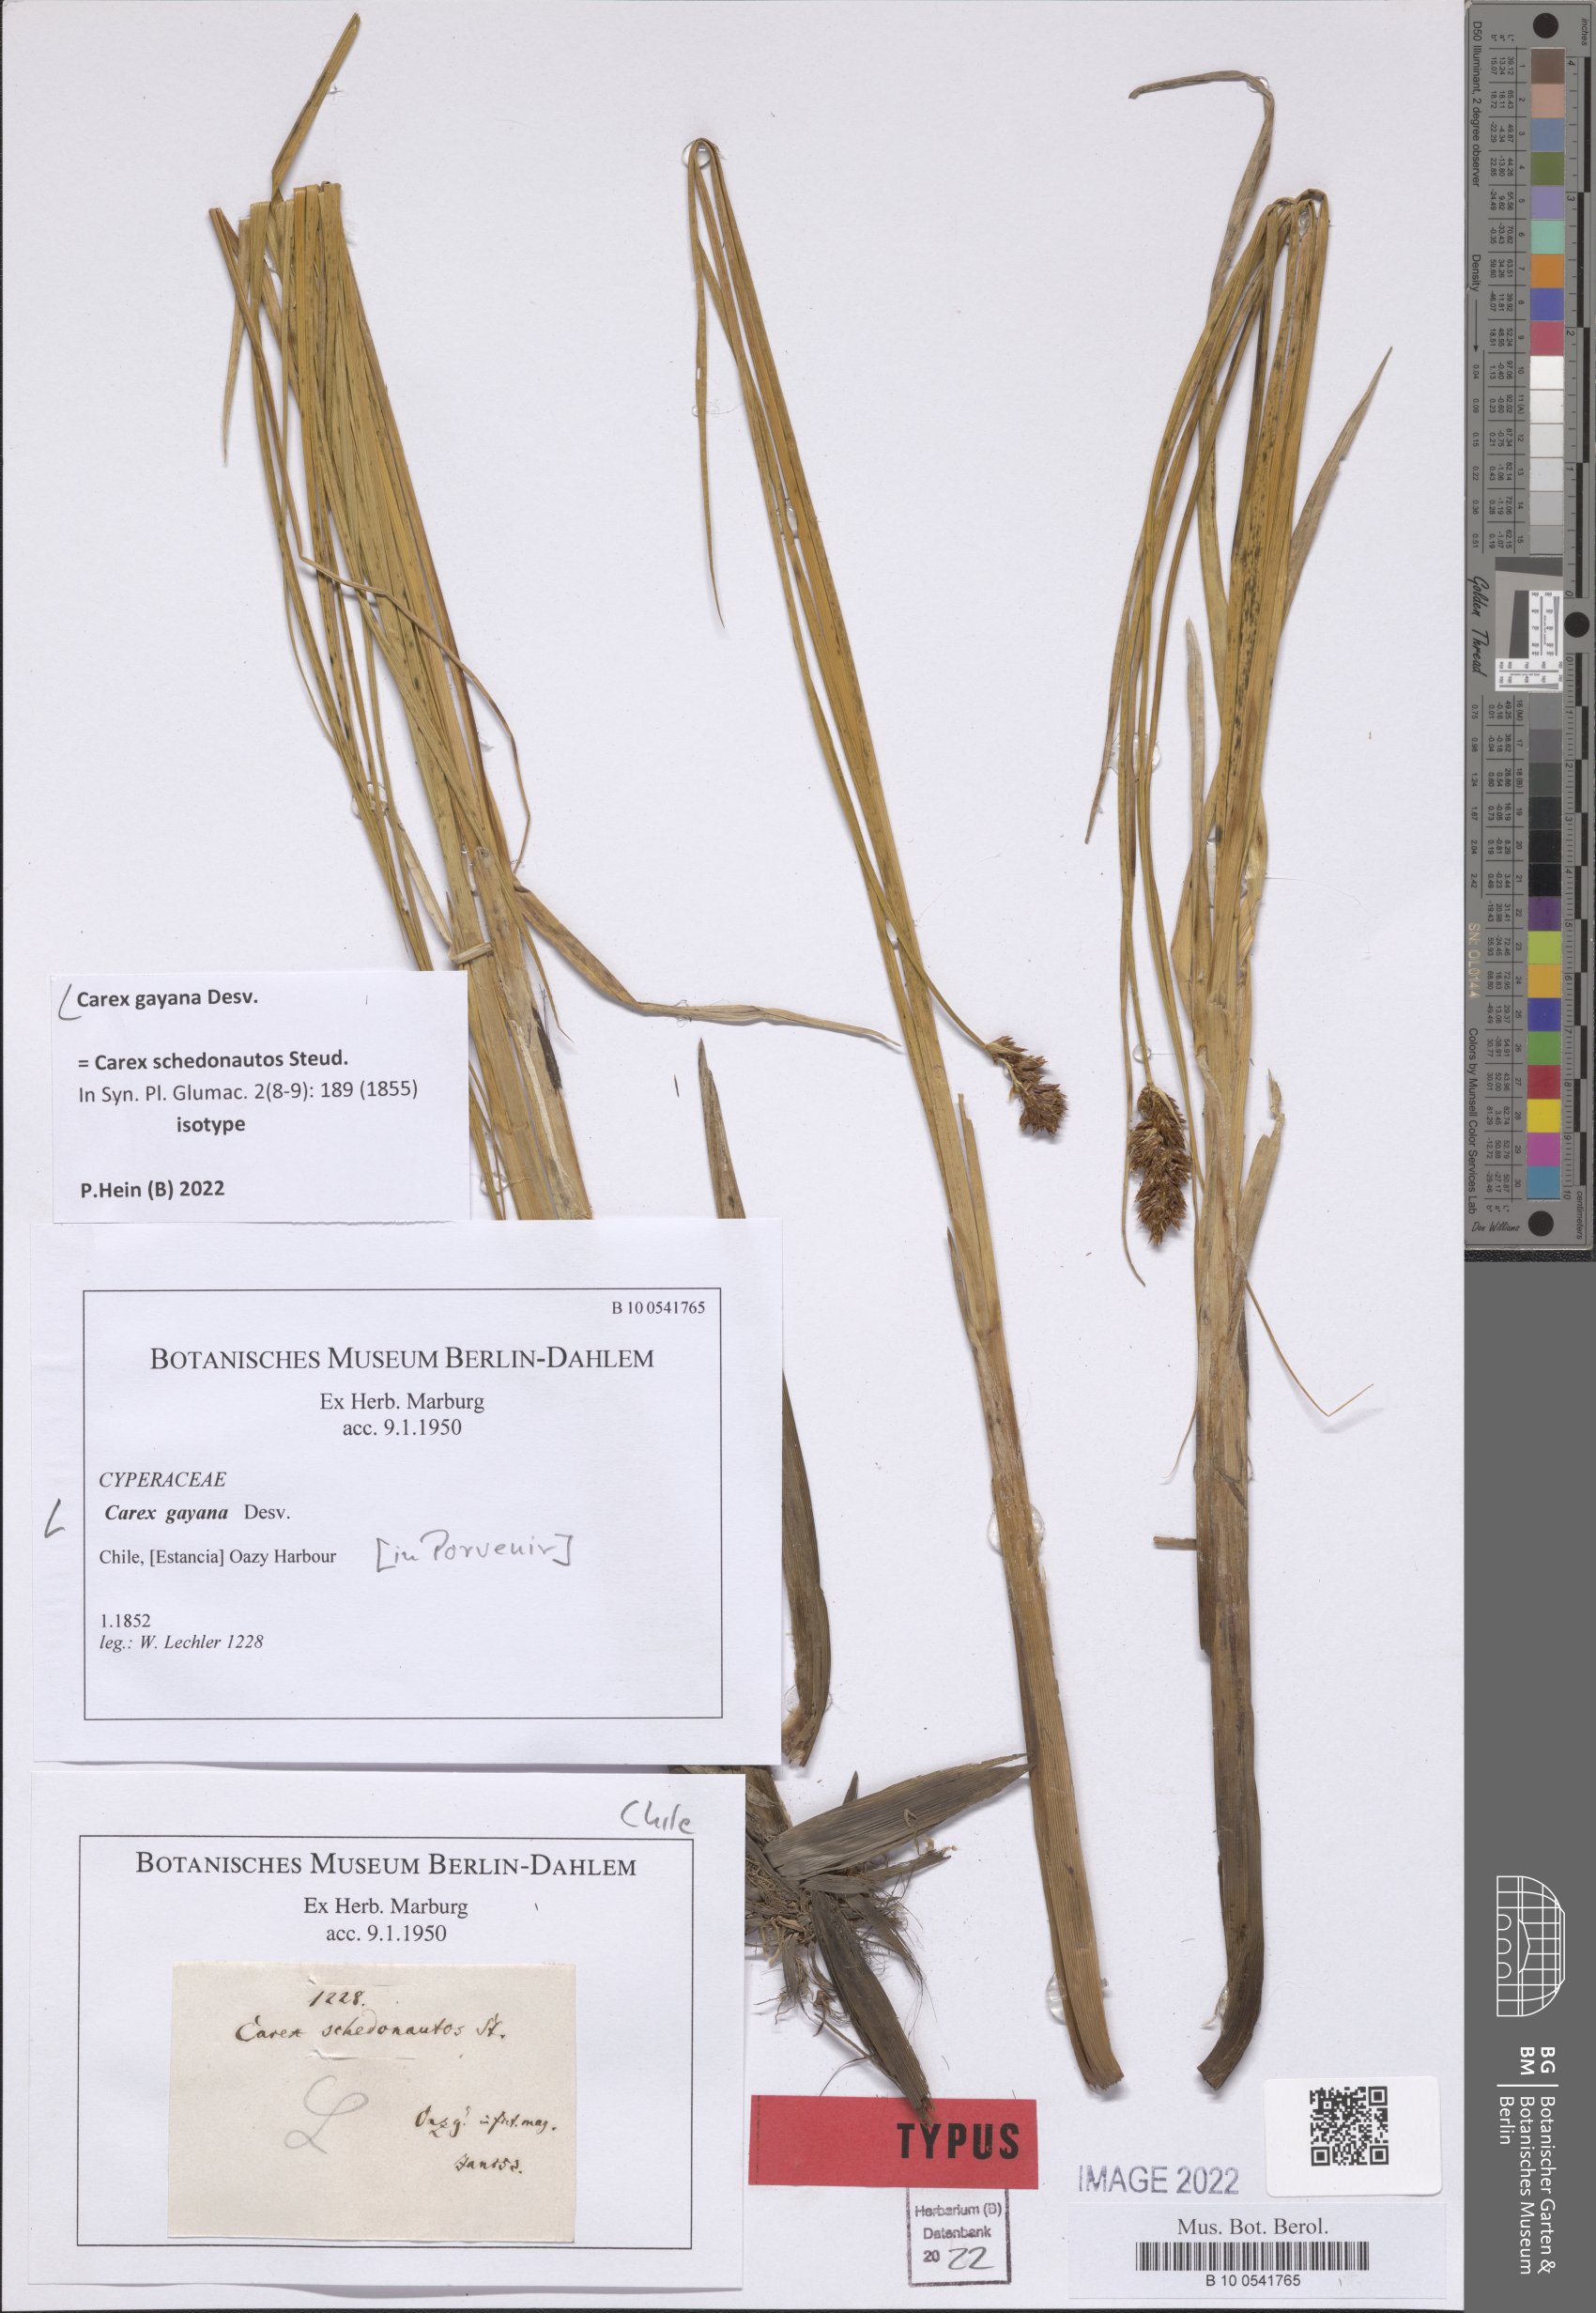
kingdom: Plantae
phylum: Tracheophyta
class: Liliopsida
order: Poales
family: Cyperaceae
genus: Carex
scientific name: Carex gayana
